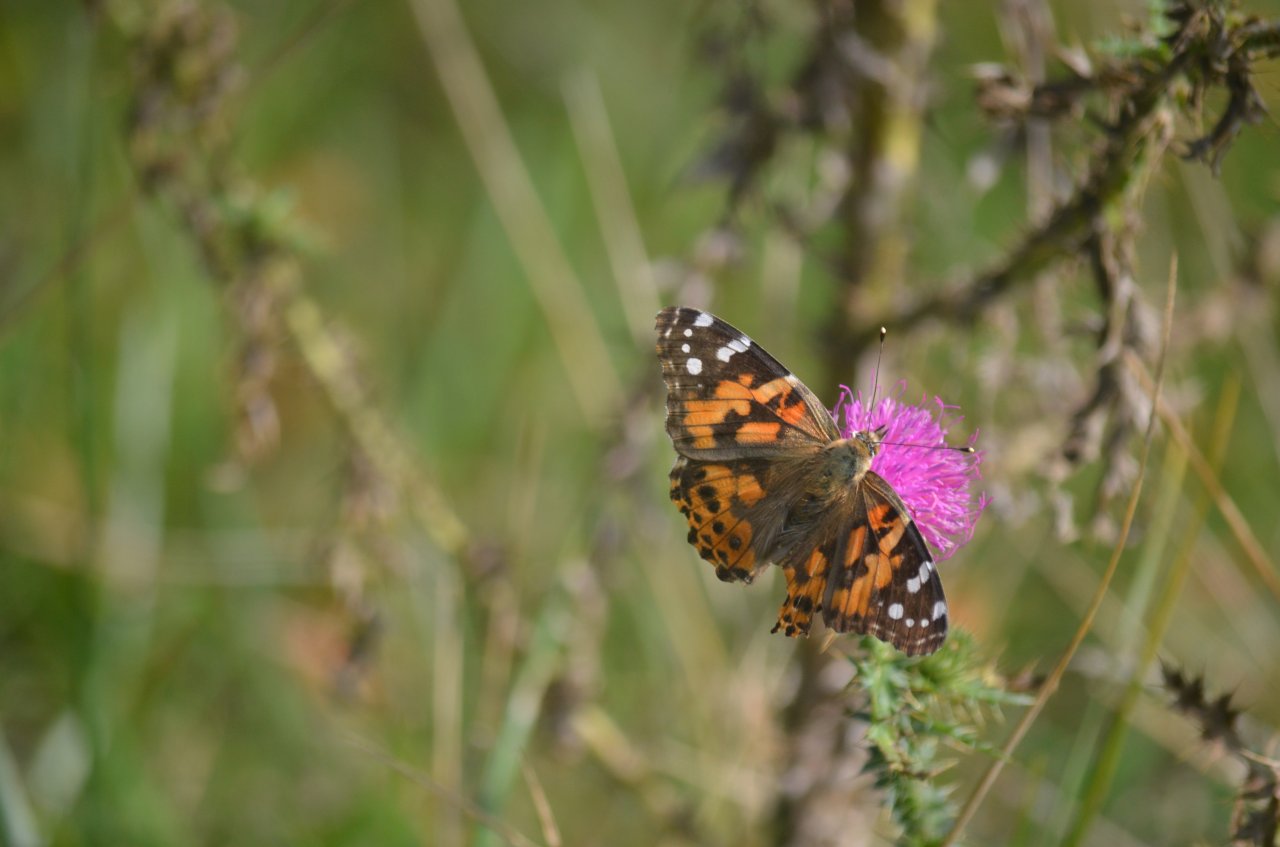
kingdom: Animalia
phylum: Arthropoda
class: Insecta
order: Lepidoptera
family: Nymphalidae
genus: Vanessa
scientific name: Vanessa cardui
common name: Painted Lady
